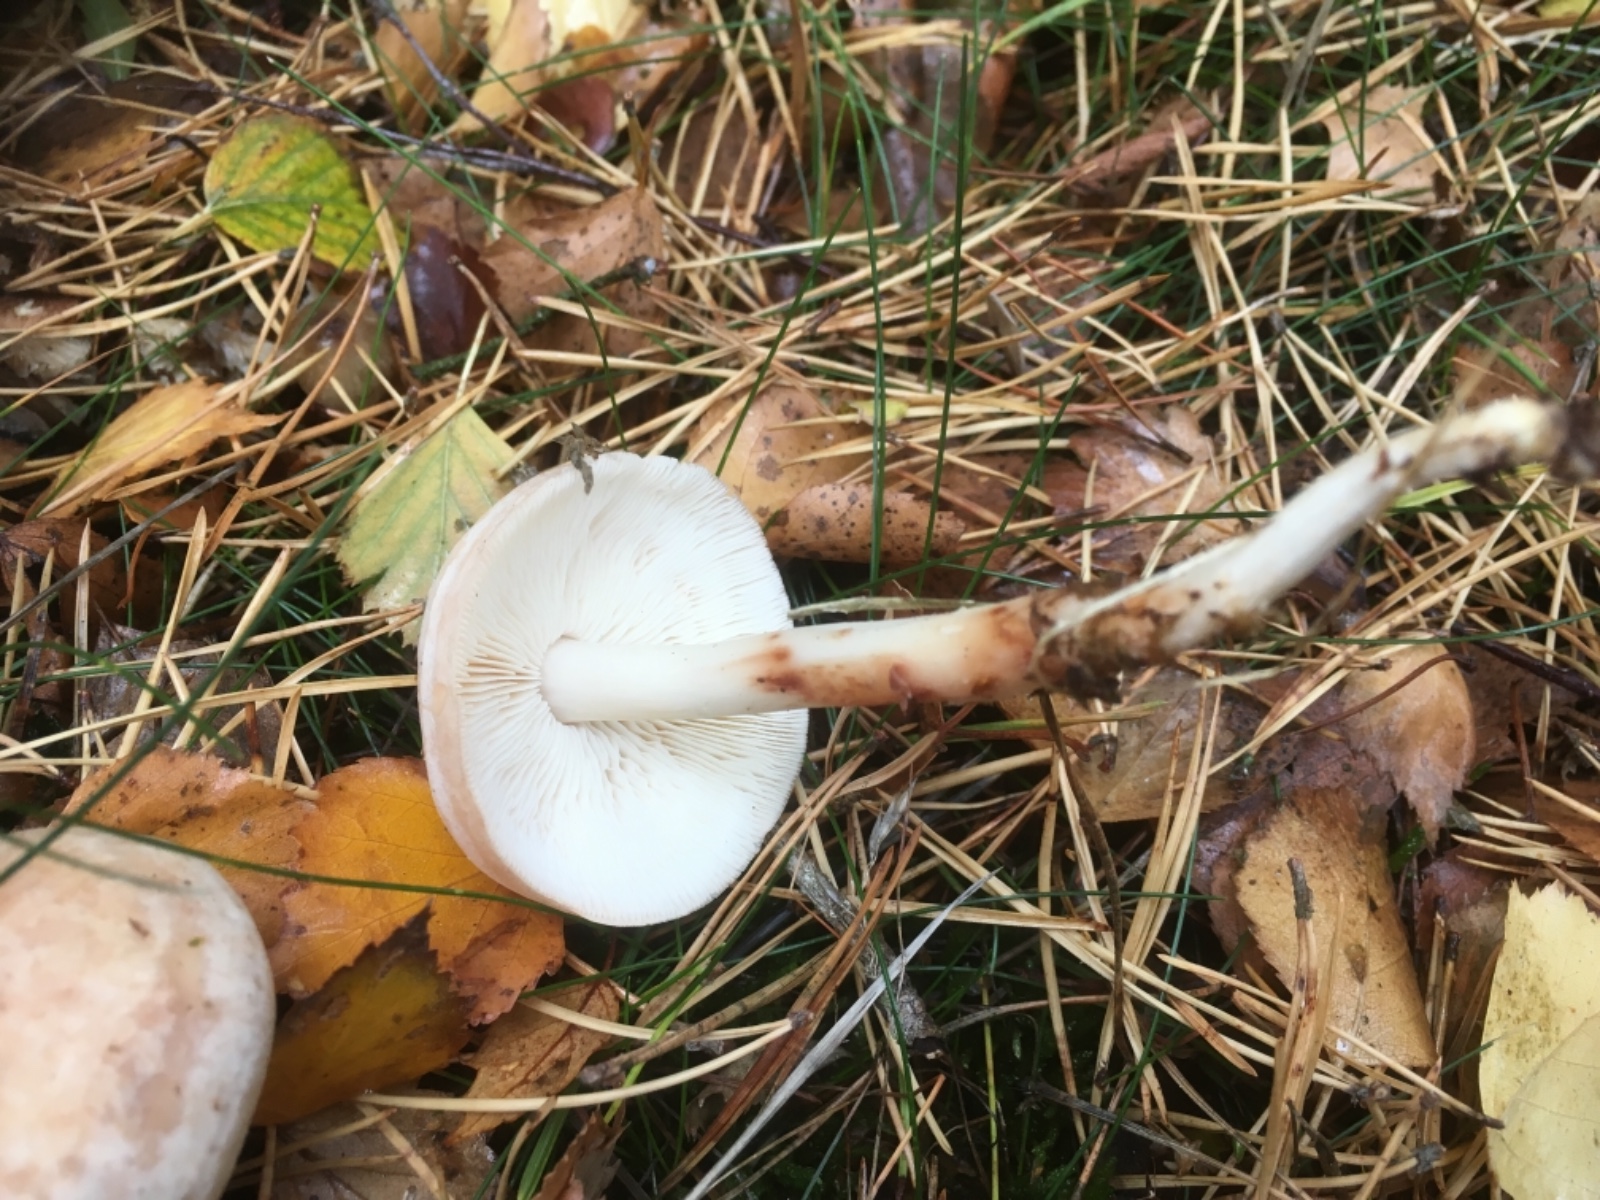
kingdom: Fungi
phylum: Basidiomycota
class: Agaricomycetes
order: Agaricales
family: Omphalotaceae
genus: Rhodocollybia
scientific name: Rhodocollybia maculata
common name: plettet fladhat
